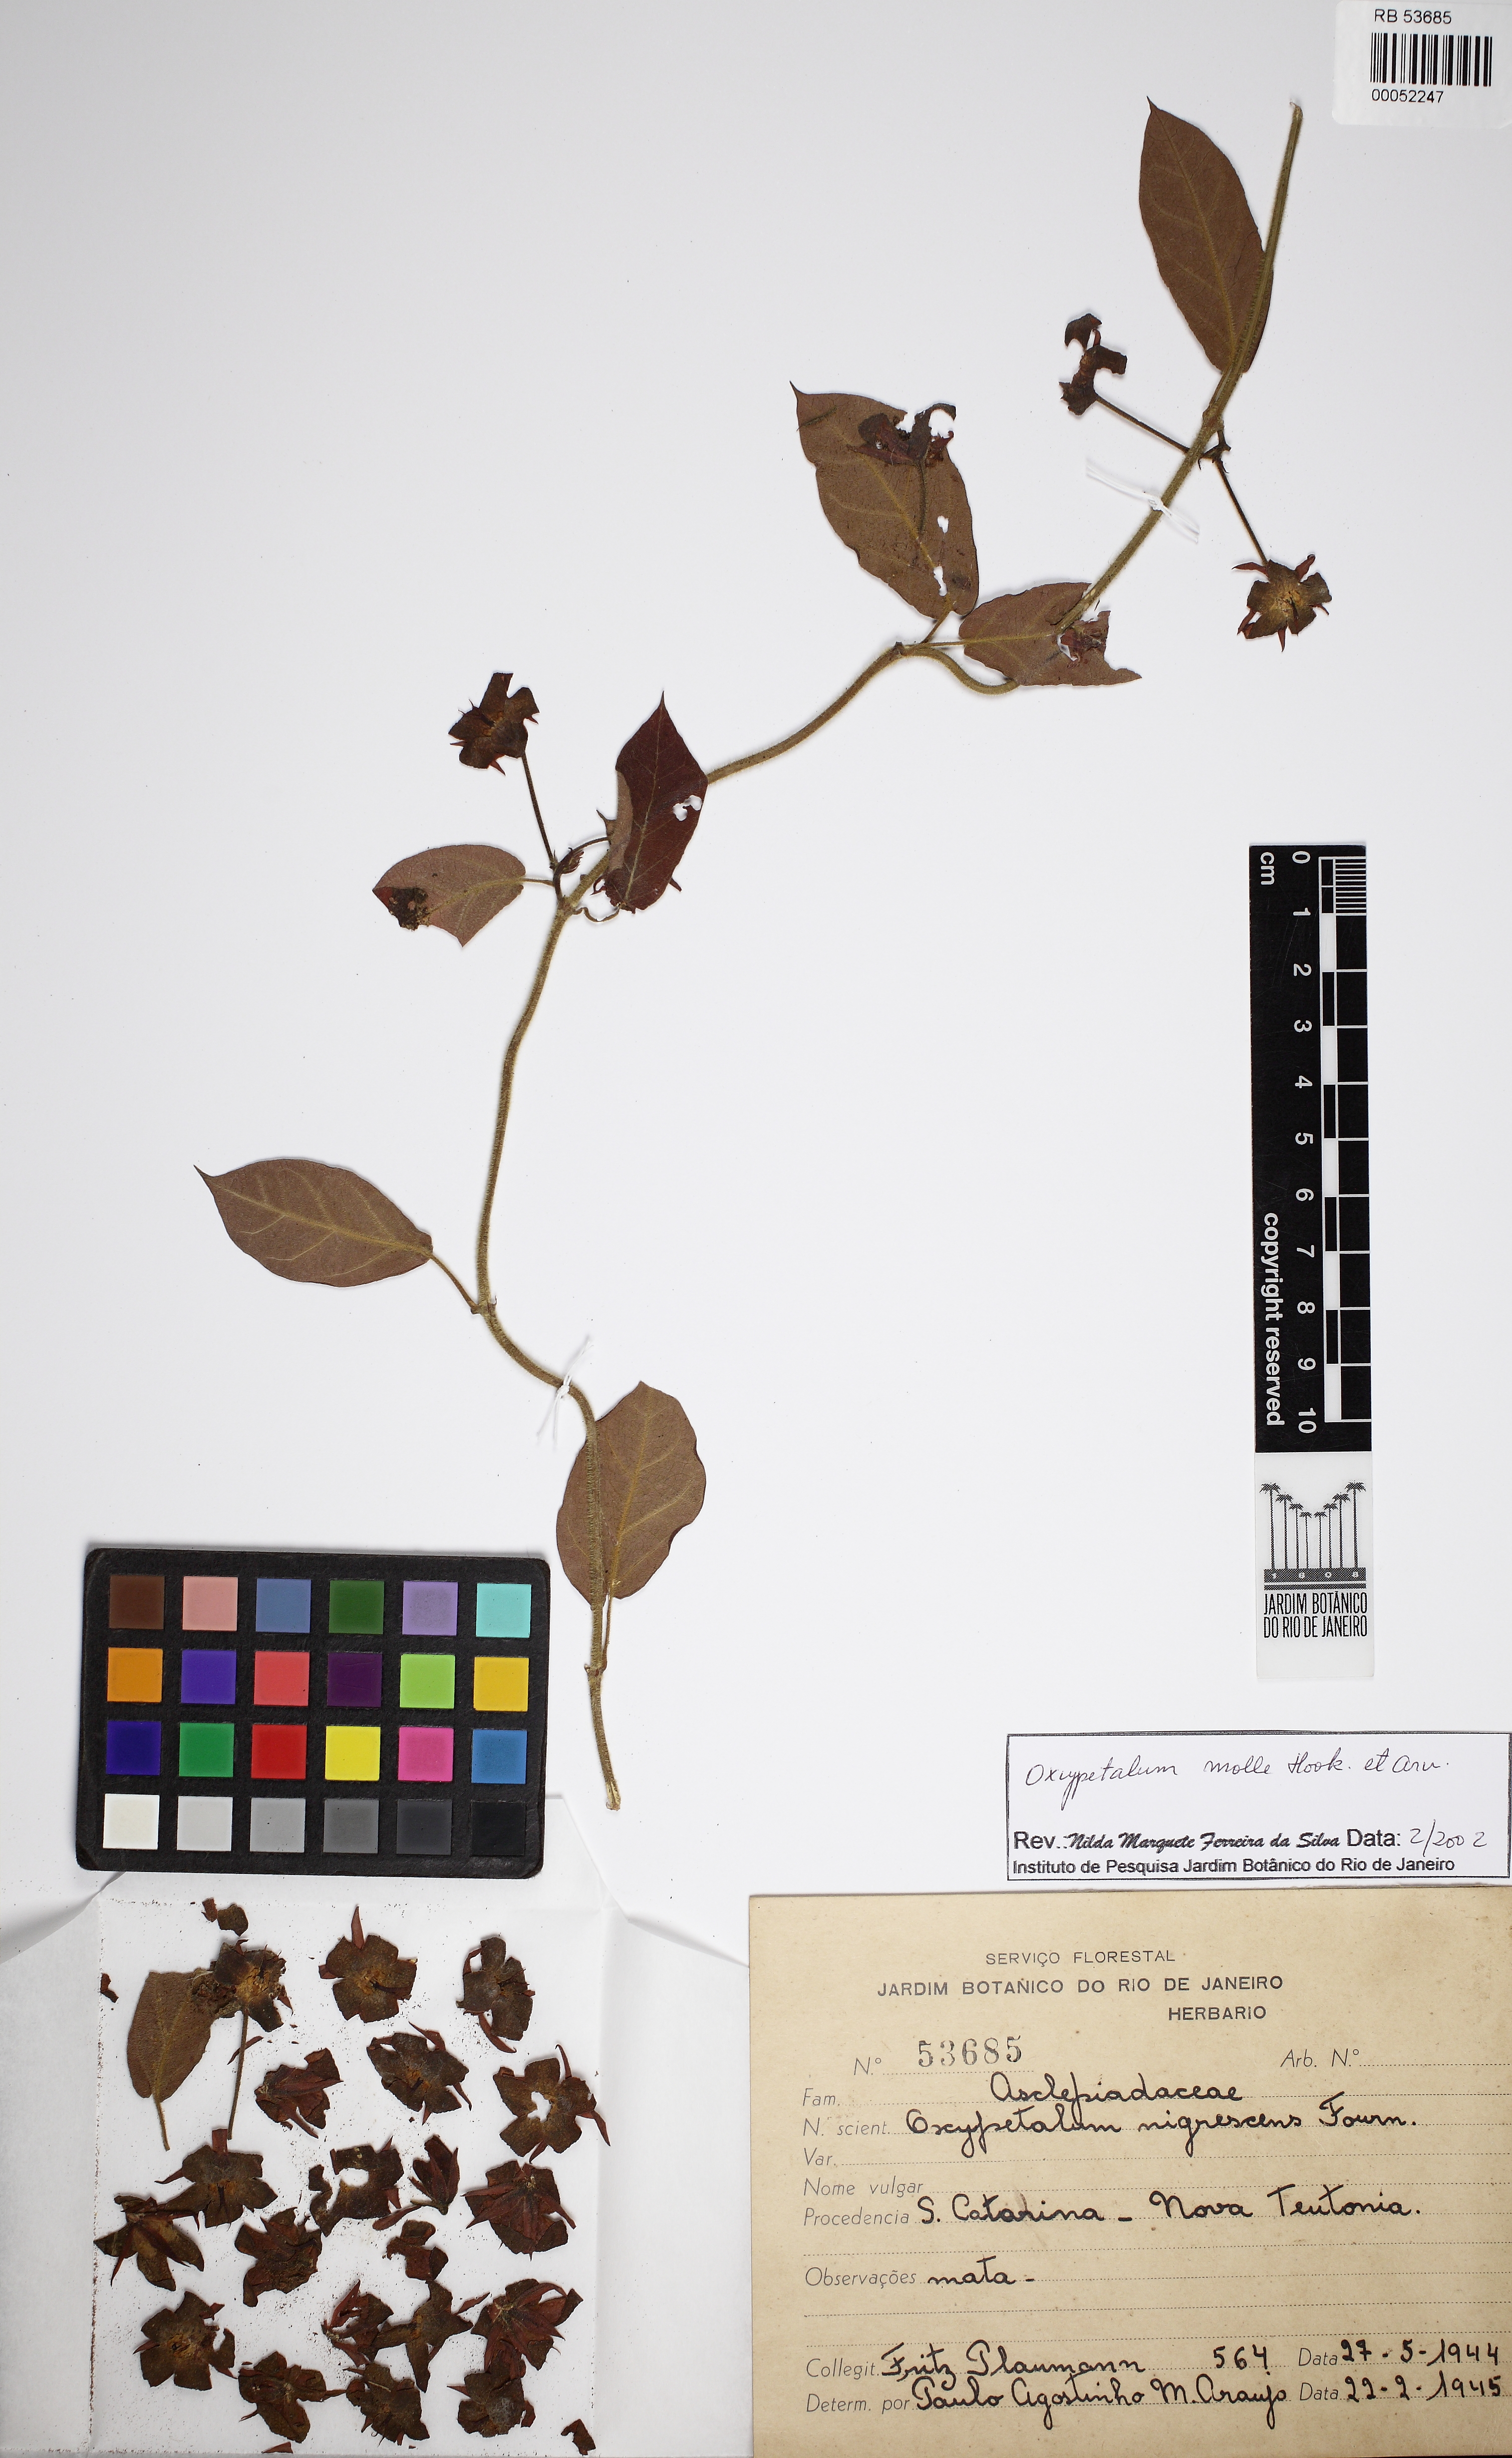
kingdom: Plantae
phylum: Tracheophyta
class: Magnoliopsida
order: Gentianales
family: Apocynaceae
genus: Oxypetalum
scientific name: Oxypetalum molle
